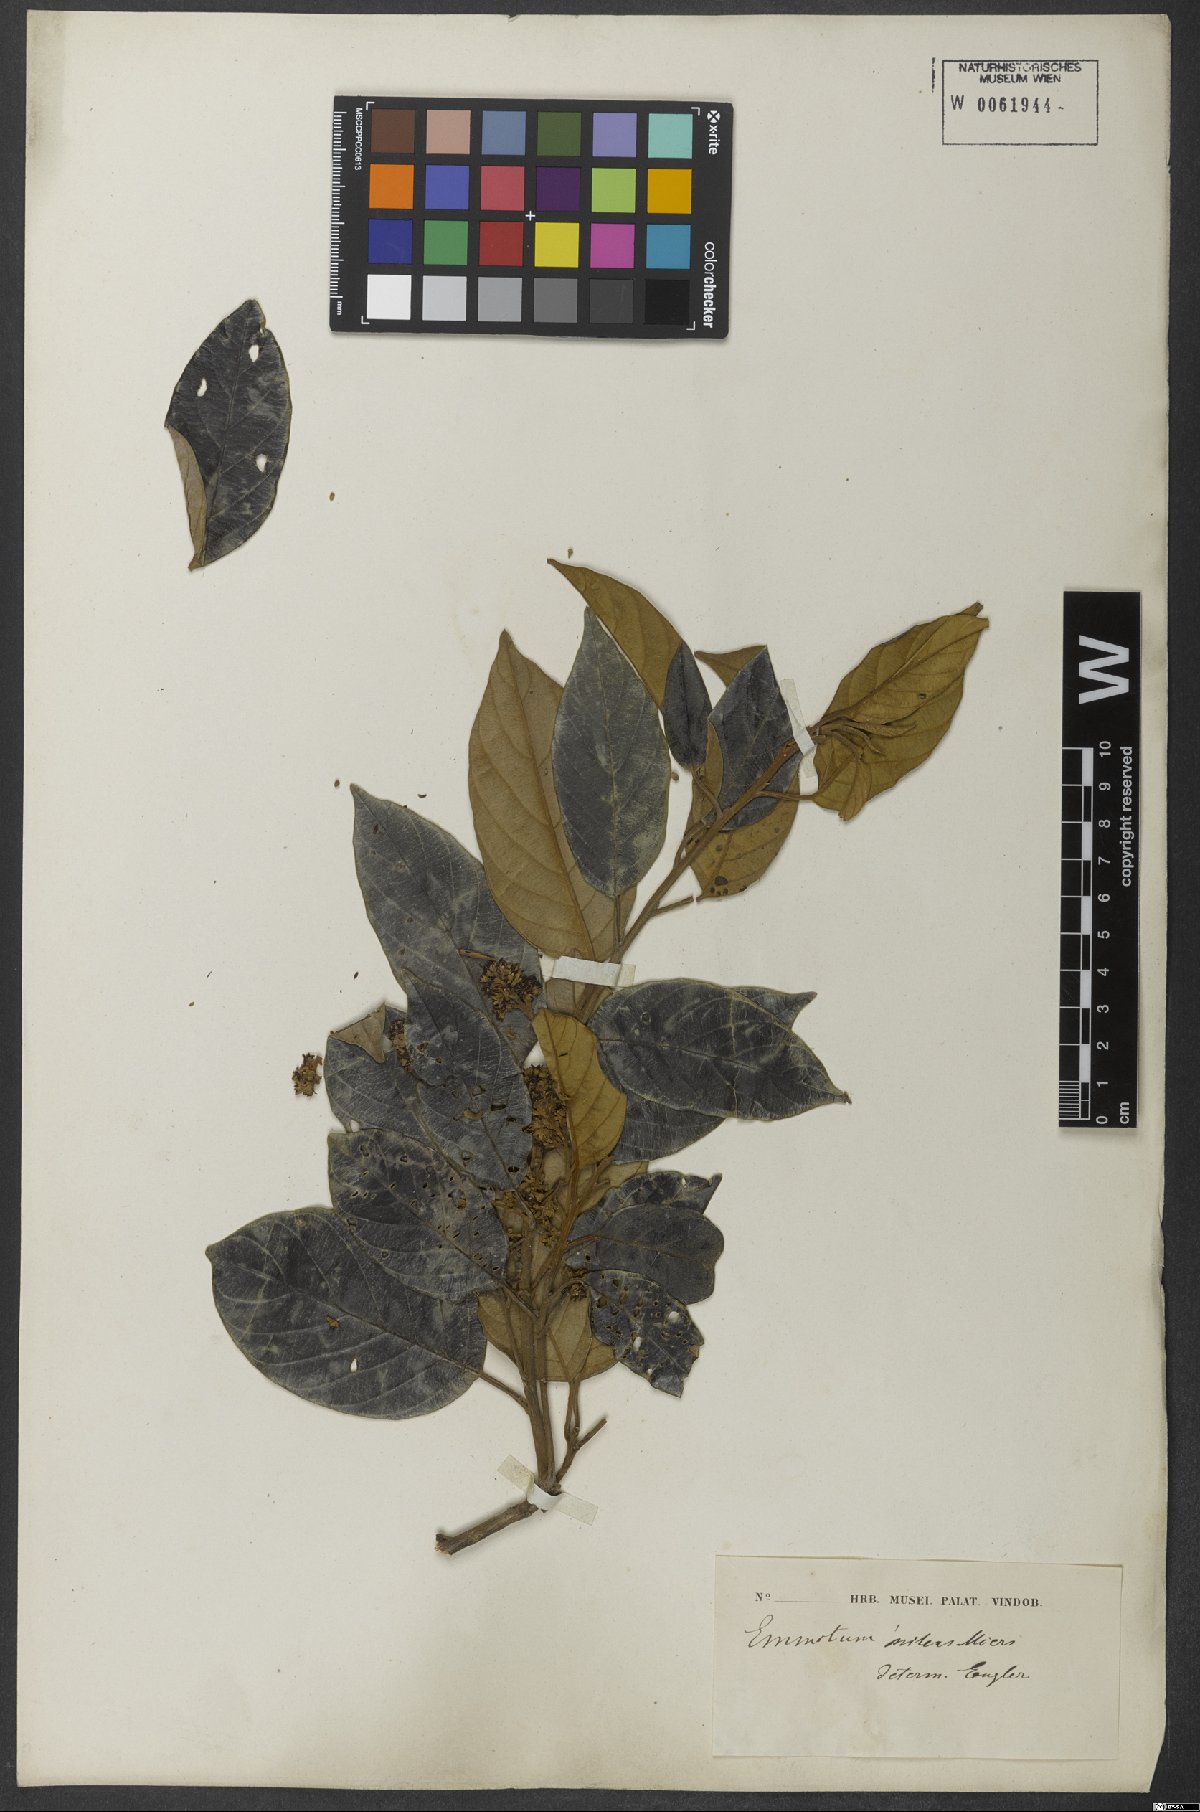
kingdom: Plantae
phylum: Tracheophyta
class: Magnoliopsida
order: Metteniusales
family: Metteniusaceae
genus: Emmotum
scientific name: Emmotum nitens
